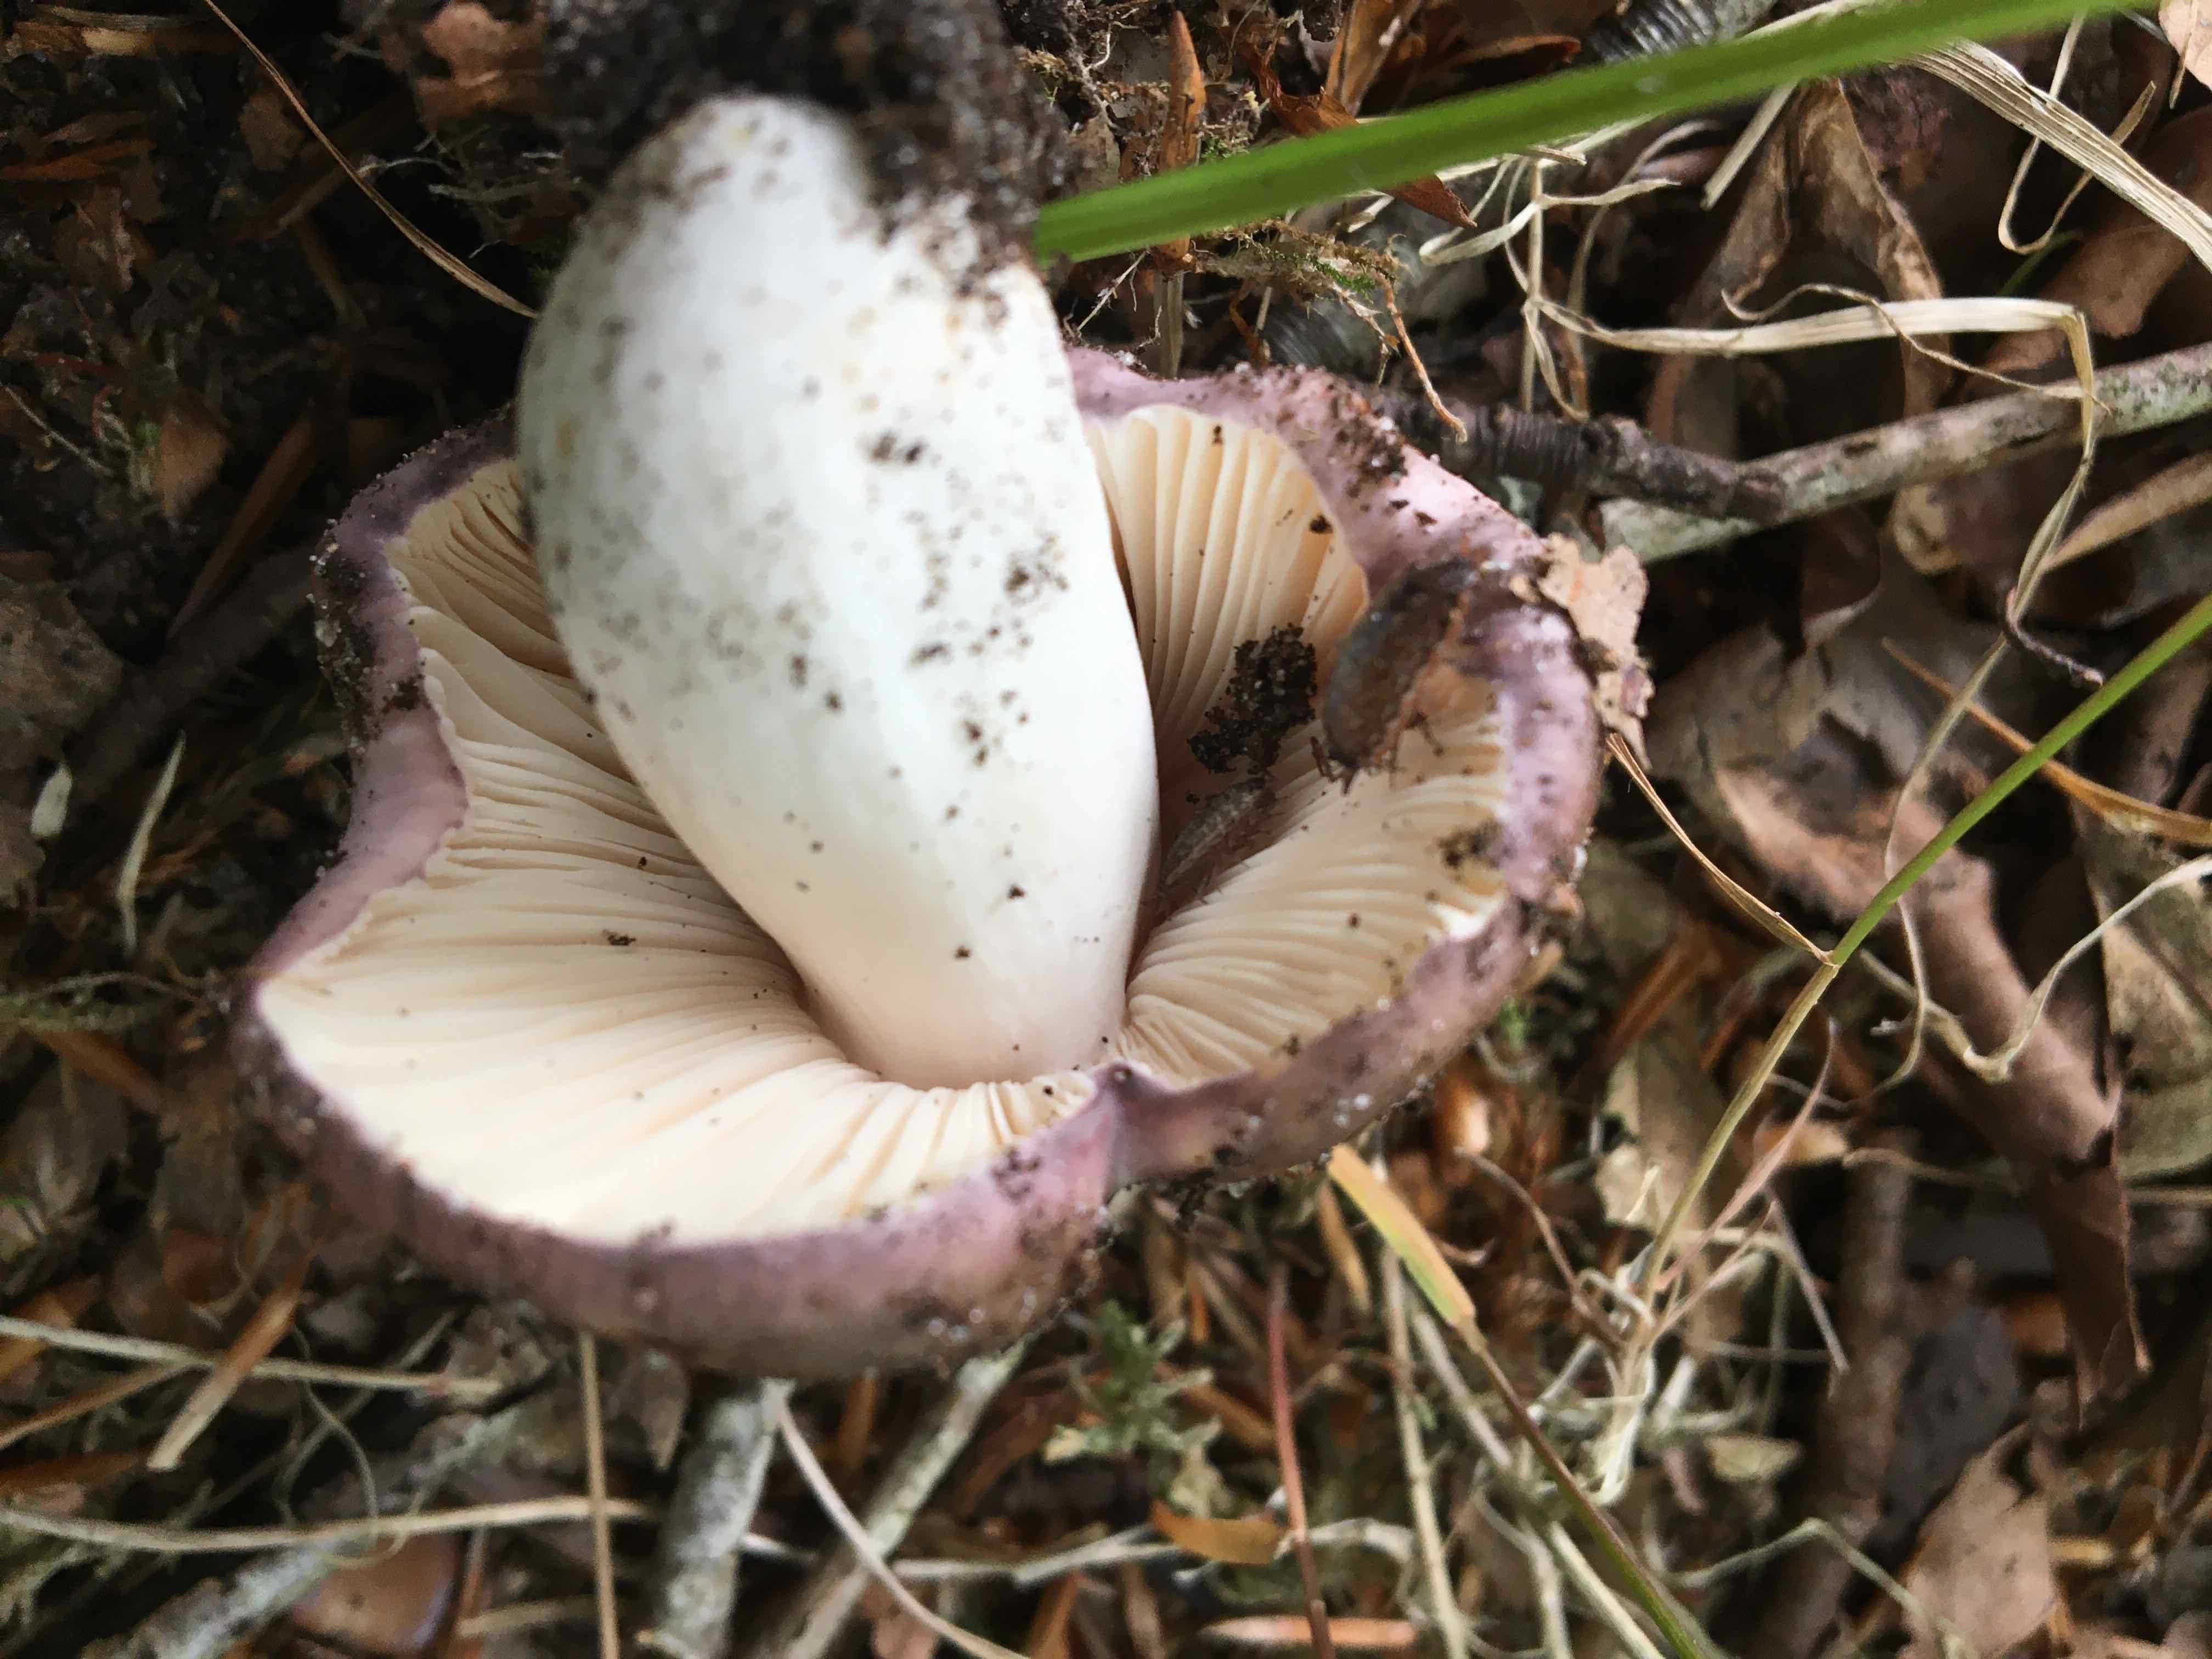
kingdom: Fungi
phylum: Basidiomycota
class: Agaricomycetes
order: Russulales
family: Russulaceae
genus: Russula
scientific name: Russula
